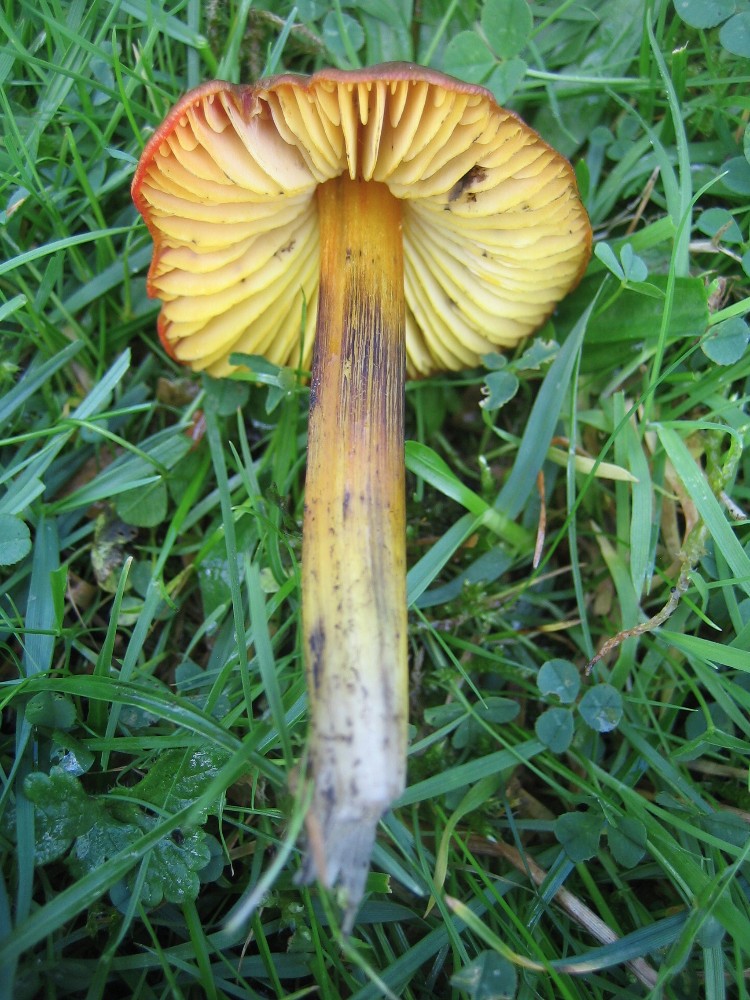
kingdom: Fungi
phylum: Basidiomycota
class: Agaricomycetes
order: Agaricales
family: Hygrophoraceae
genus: Hygrocybe
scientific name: Hygrocybe conica
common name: kegle-vokshat
